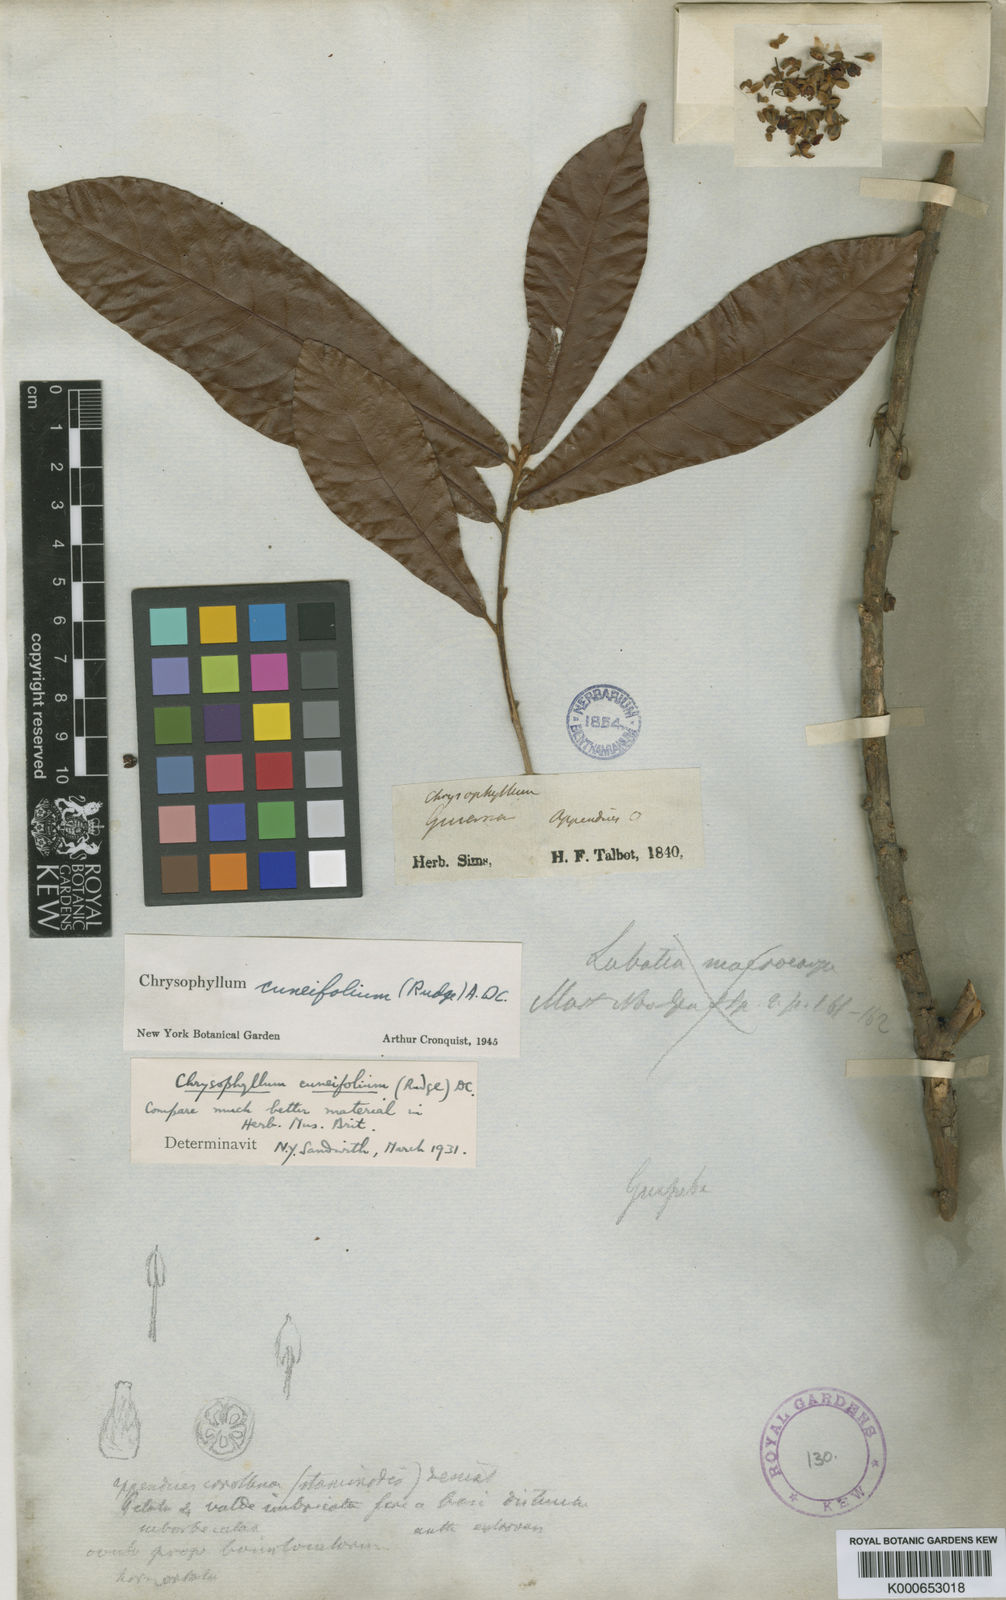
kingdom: Plantae
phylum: Tracheophyta
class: Magnoliopsida
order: Ericales
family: Sapotaceae
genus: Chrysophyllum
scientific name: Chrysophyllum cuneifolium
